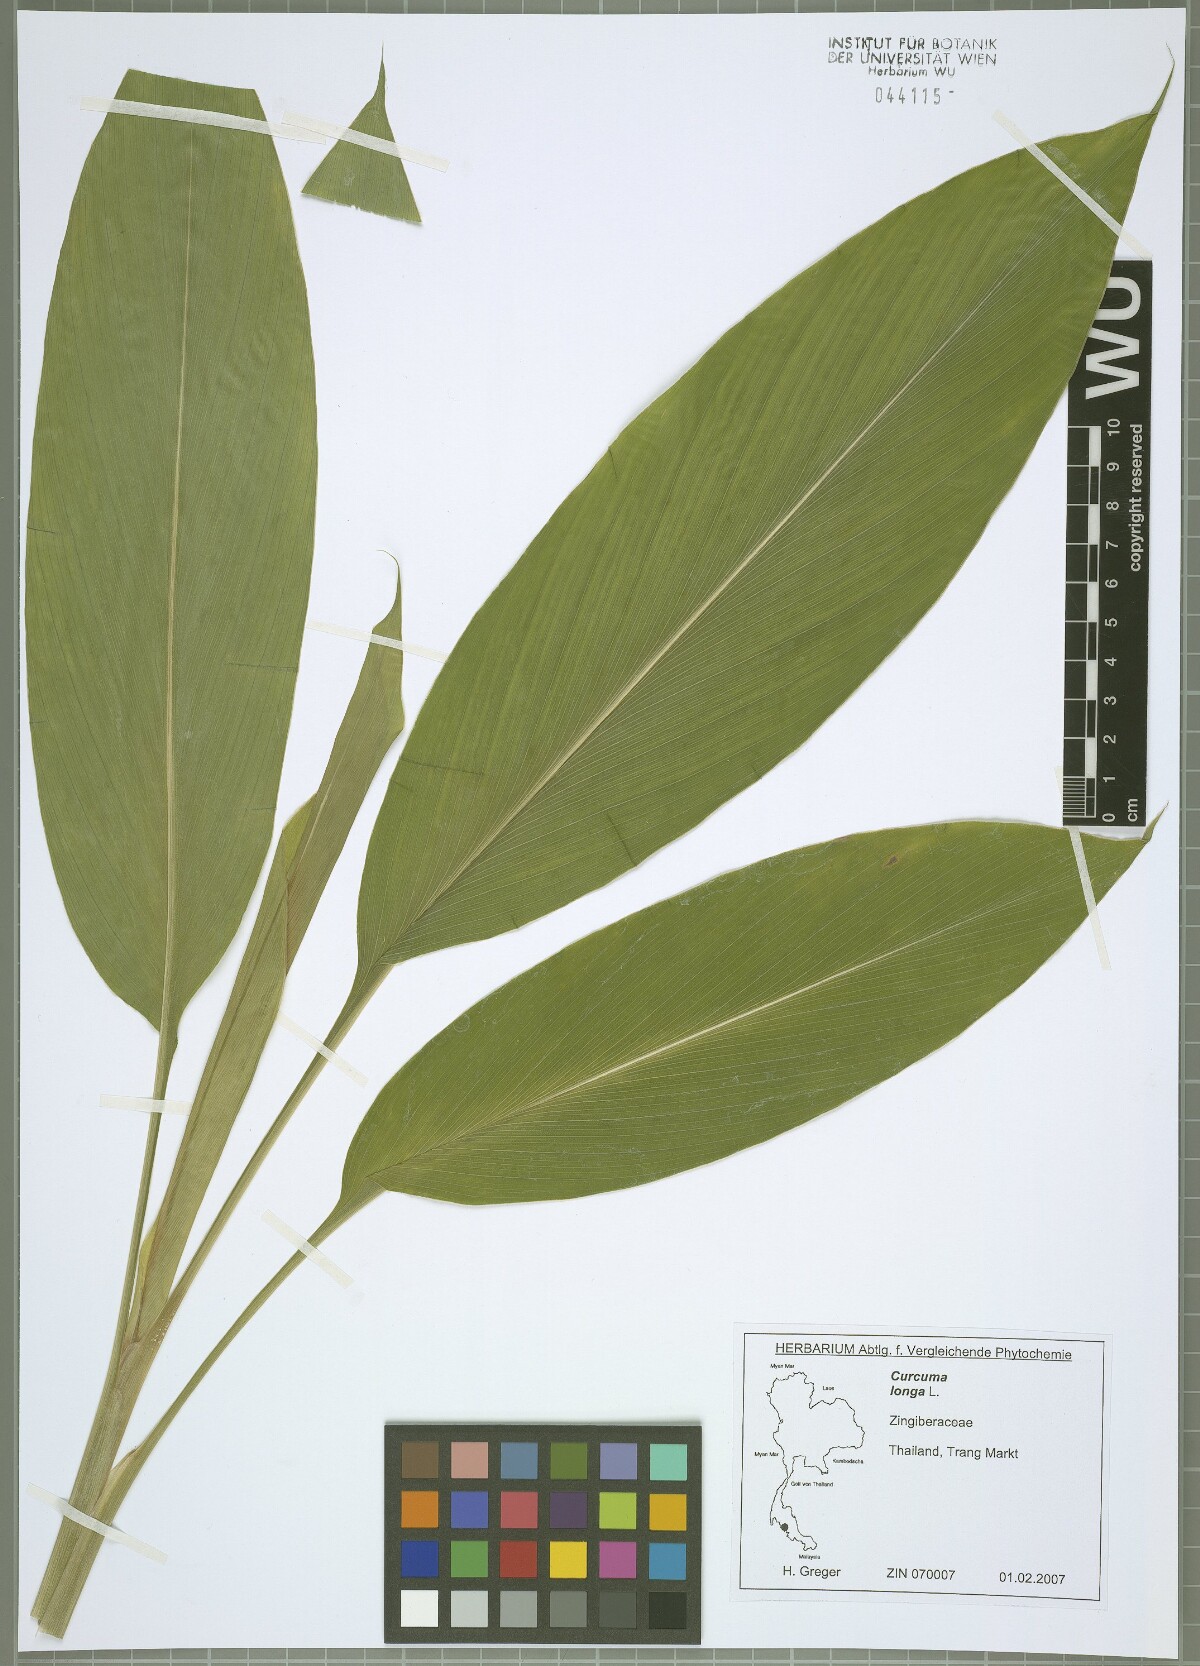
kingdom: Plantae
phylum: Tracheophyta
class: Liliopsida
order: Zingiberales
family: Zingiberaceae
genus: Curcuma
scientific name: Curcuma longa
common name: Turmeric
